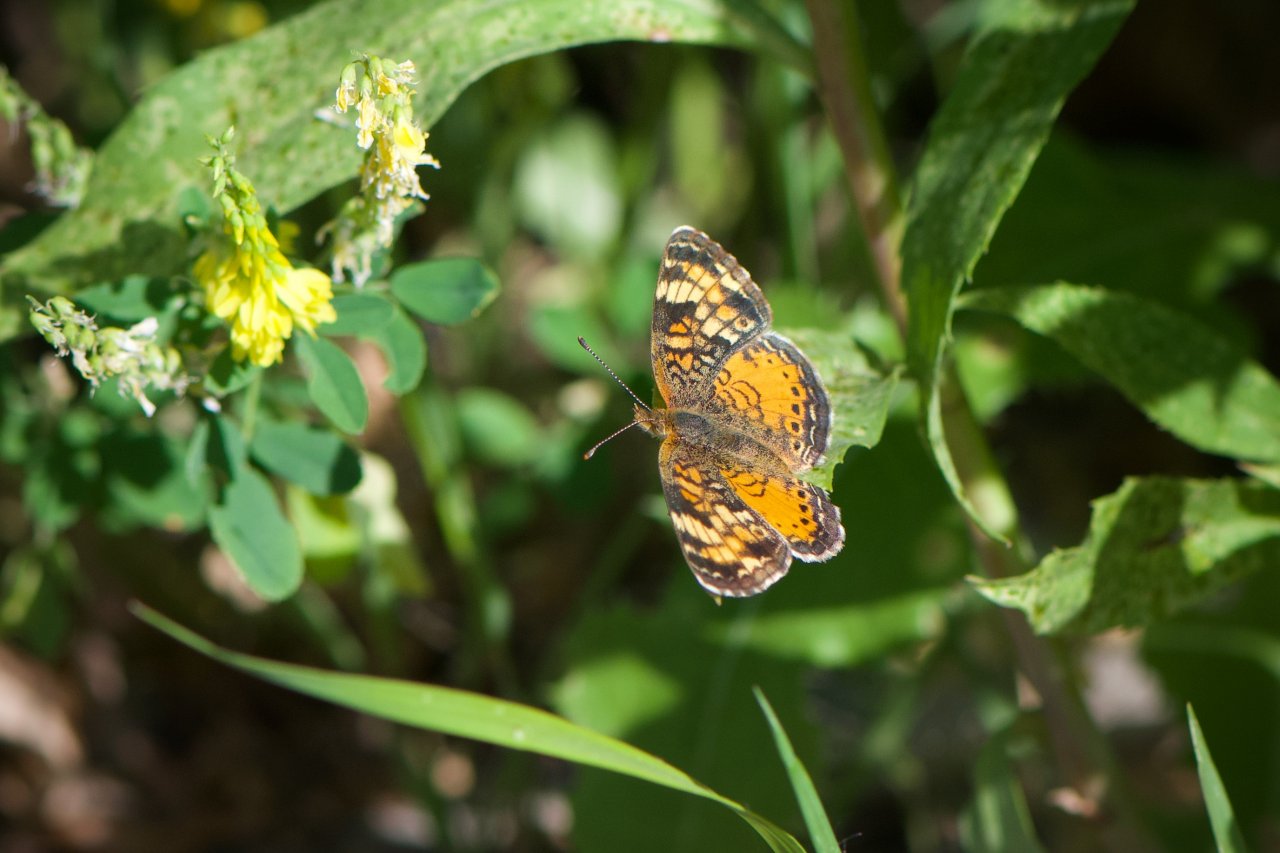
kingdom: Animalia
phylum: Arthropoda
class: Insecta
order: Lepidoptera
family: Nymphalidae
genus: Phyciodes
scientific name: Phyciodes tharos
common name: Northern Crescent
